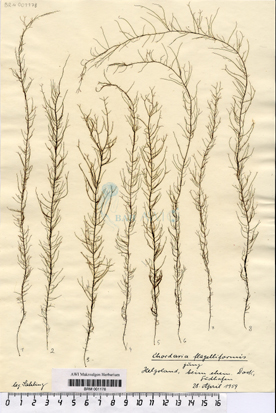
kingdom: Chromista
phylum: Ochrophyta
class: Phaeophyceae
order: Ectocarpales
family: Chordariaceae
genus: Chordaria
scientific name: Chordaria flagelliformis
